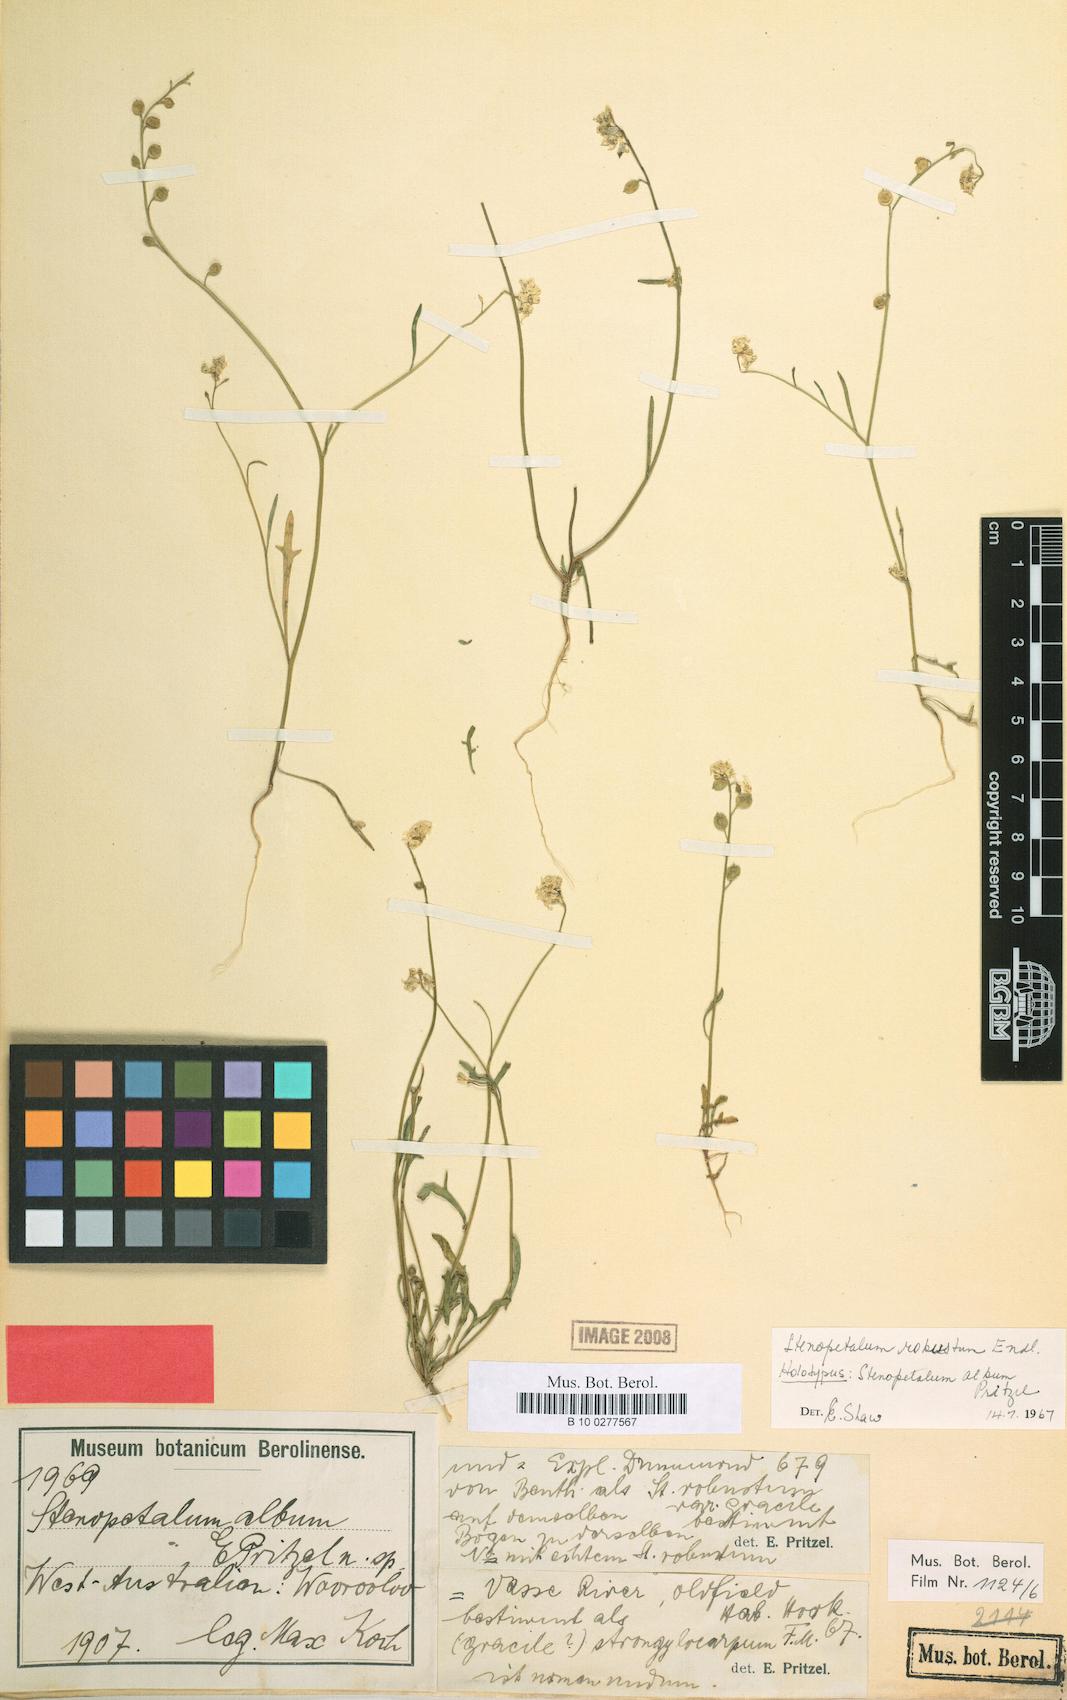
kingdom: Plantae
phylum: Tracheophyta
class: Magnoliopsida
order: Brassicales
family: Brassicaceae
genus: Stenopetalum
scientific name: Stenopetalum robustum
